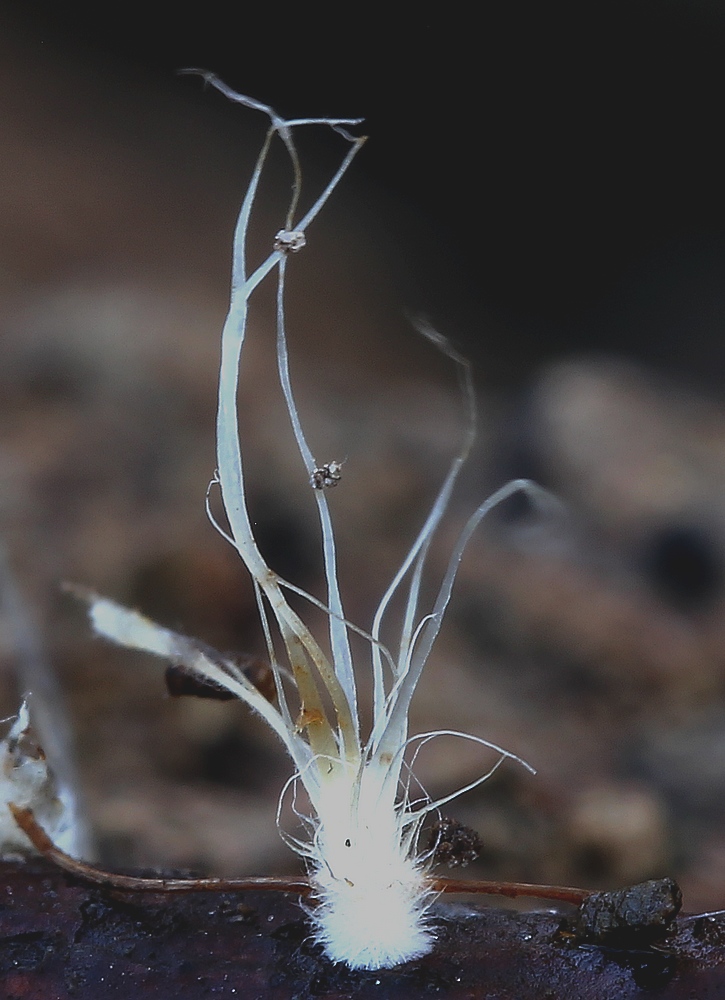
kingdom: Fungi
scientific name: Fungi
